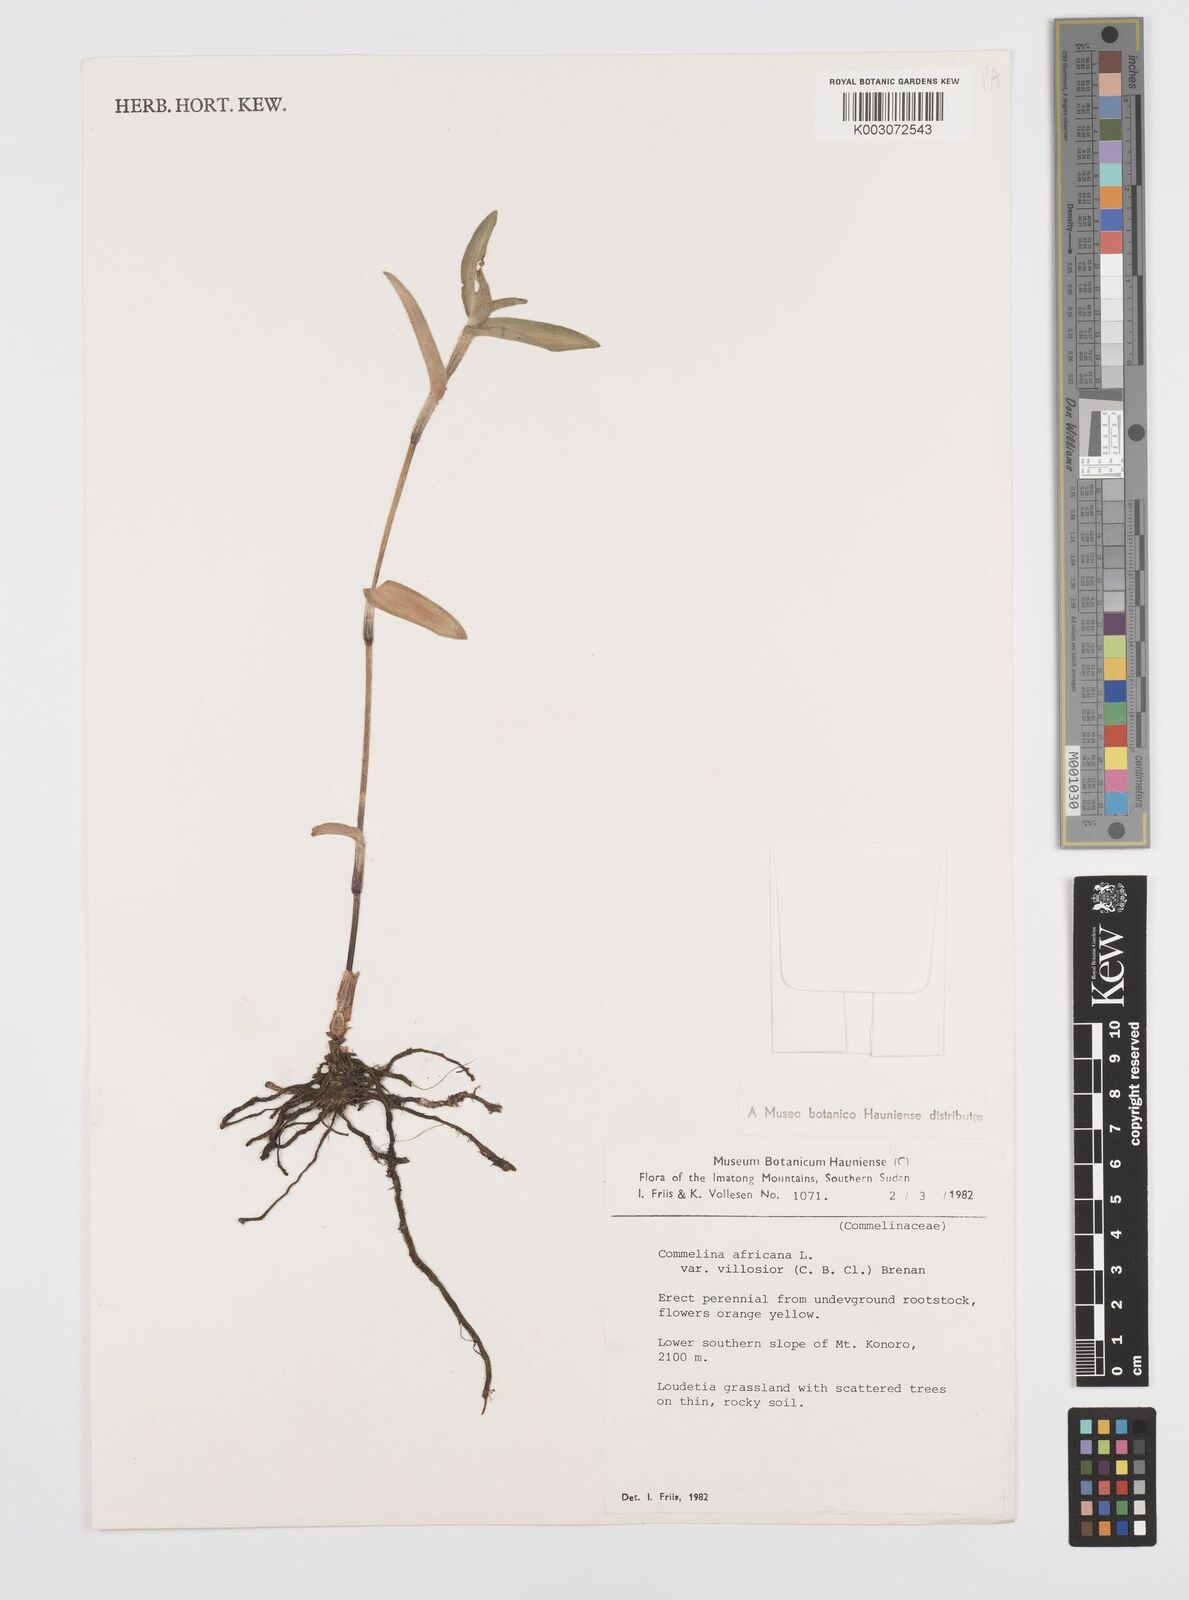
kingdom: Plantae
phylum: Tracheophyta
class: Liliopsida
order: Commelinales
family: Commelinaceae
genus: Commelina
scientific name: Commelina africana
